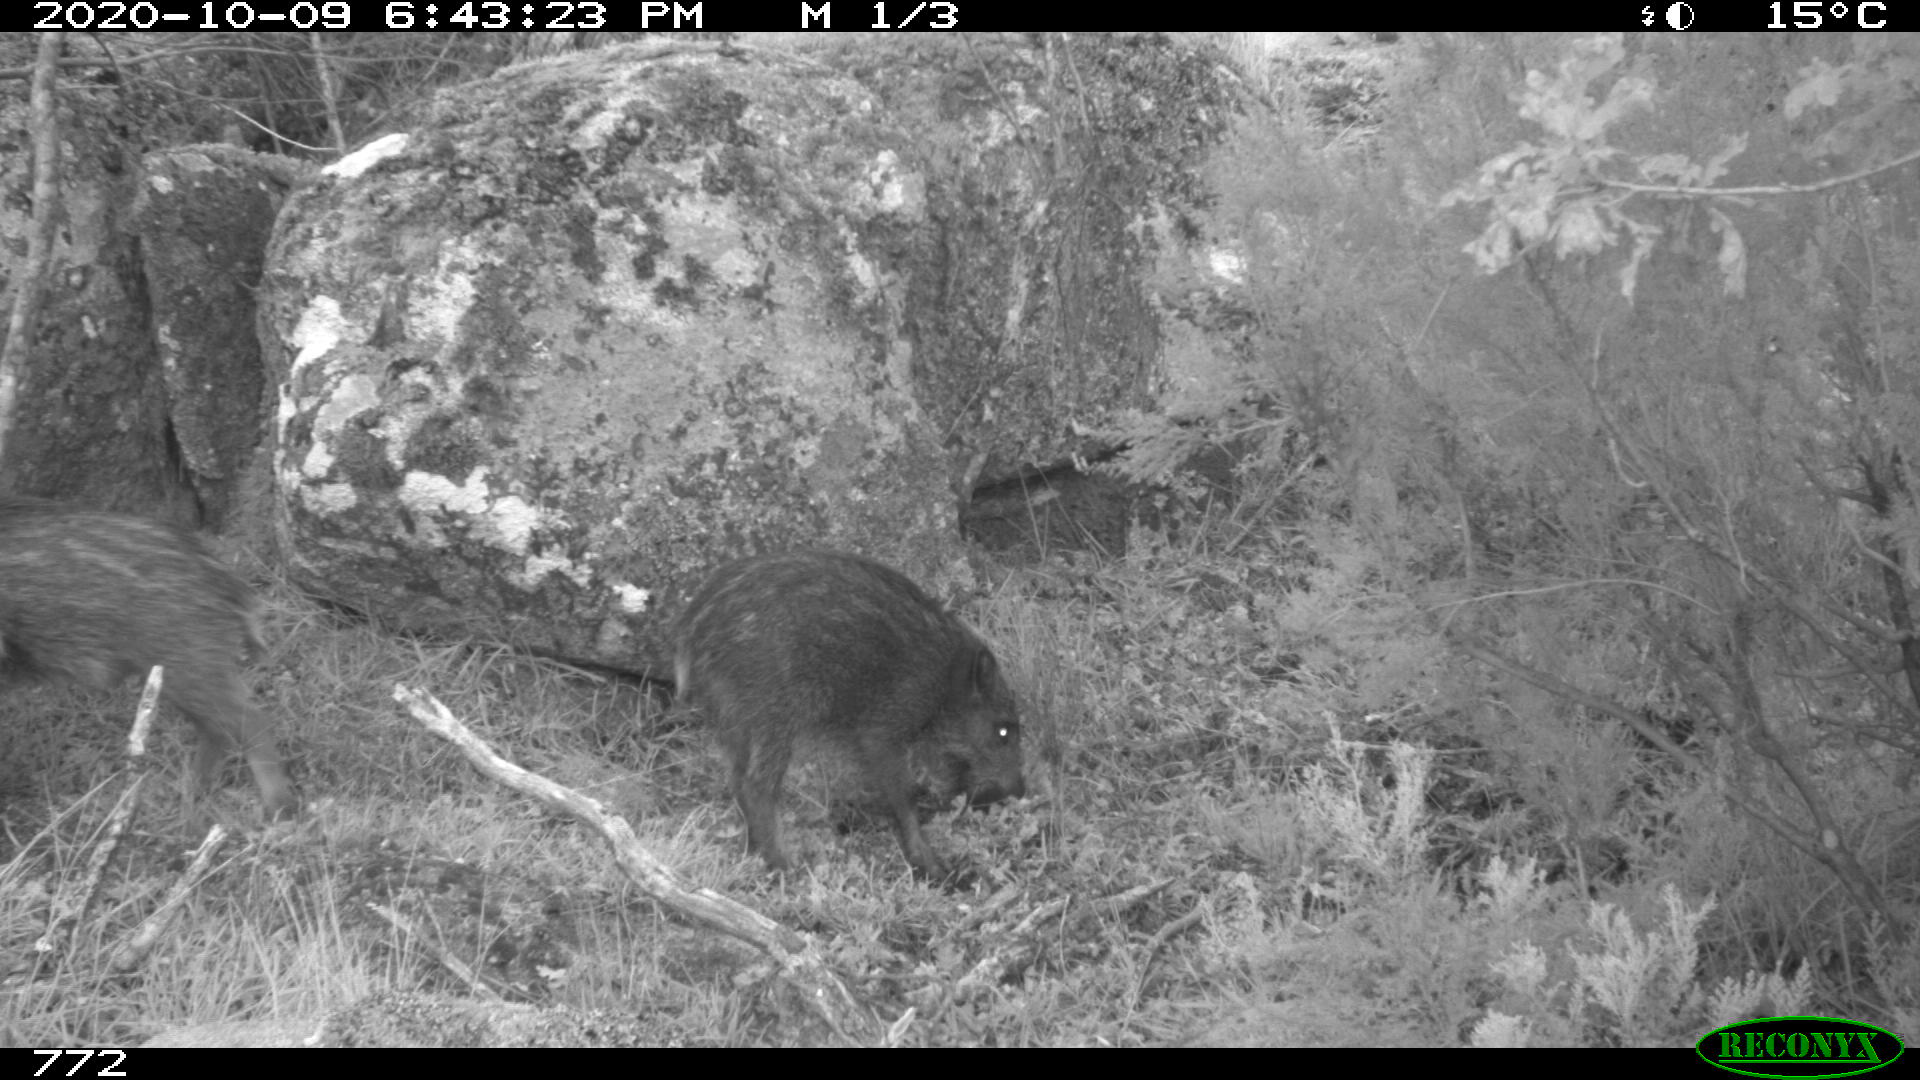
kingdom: Animalia
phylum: Chordata
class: Mammalia
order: Artiodactyla
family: Suidae
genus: Sus
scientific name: Sus scrofa
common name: Wild boar
